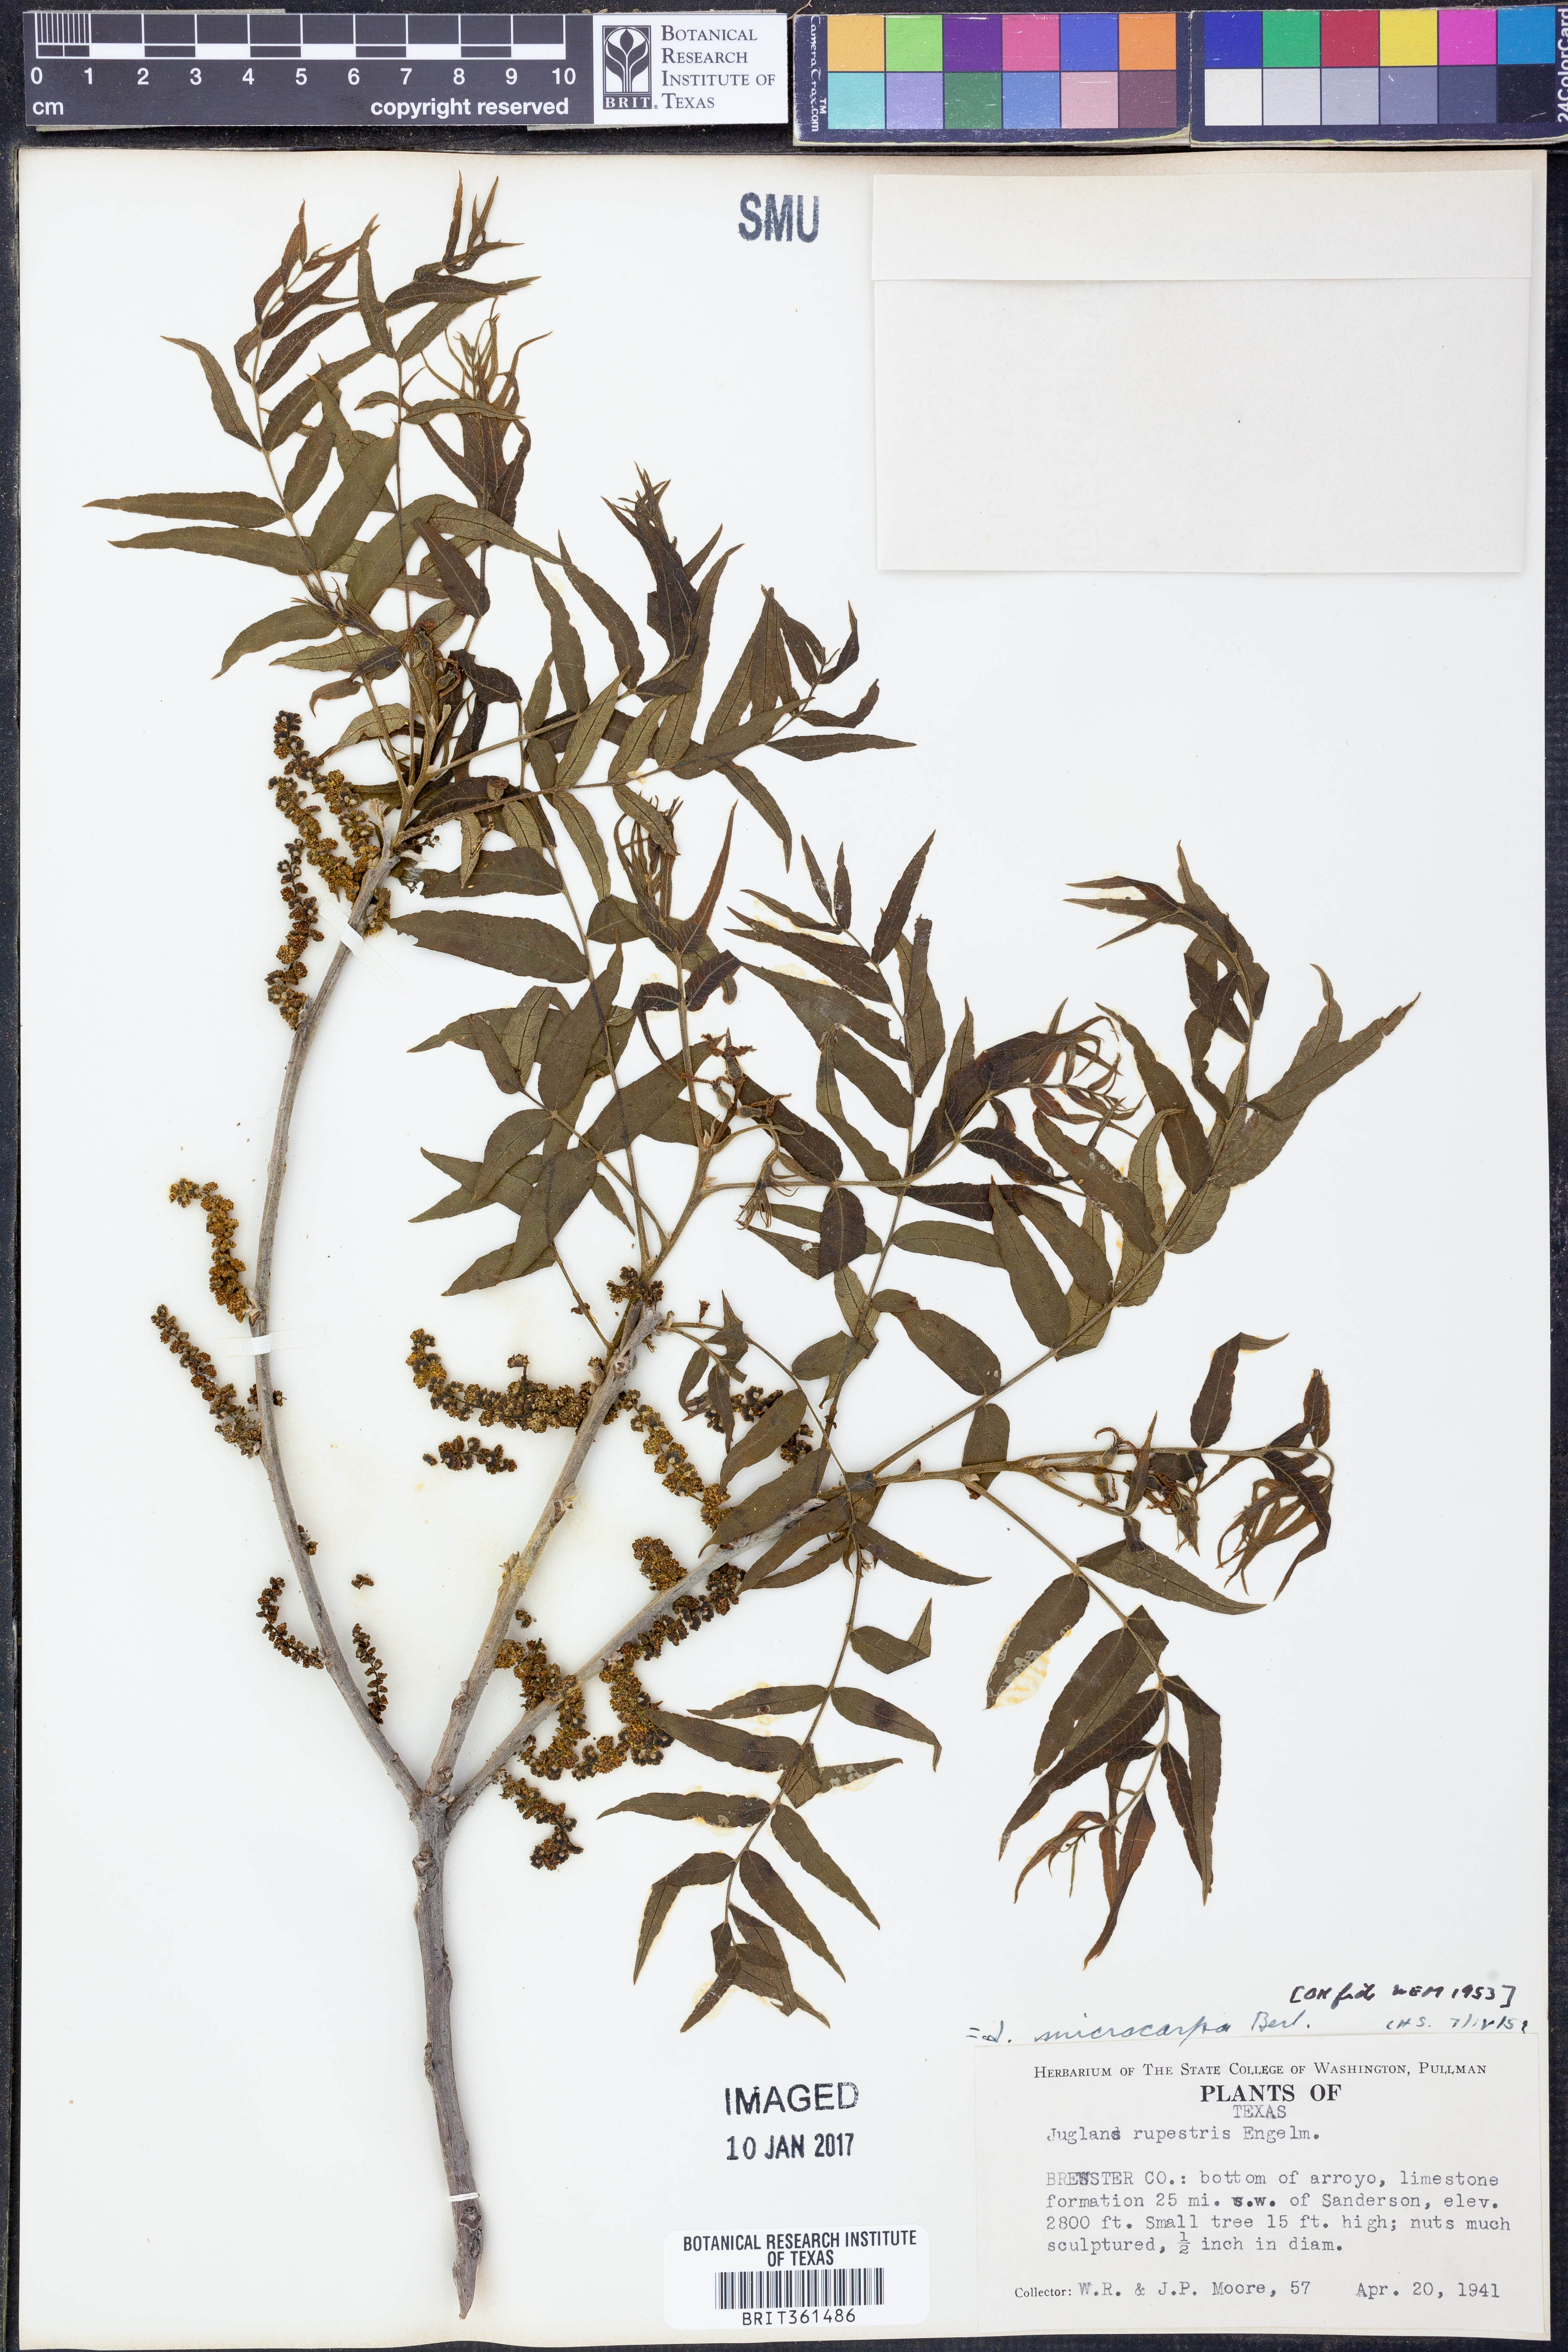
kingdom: Plantae
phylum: Tracheophyta
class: Magnoliopsida
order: Fagales
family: Juglandaceae
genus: Juglans
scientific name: Juglans microcarpa
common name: Texas walnut
